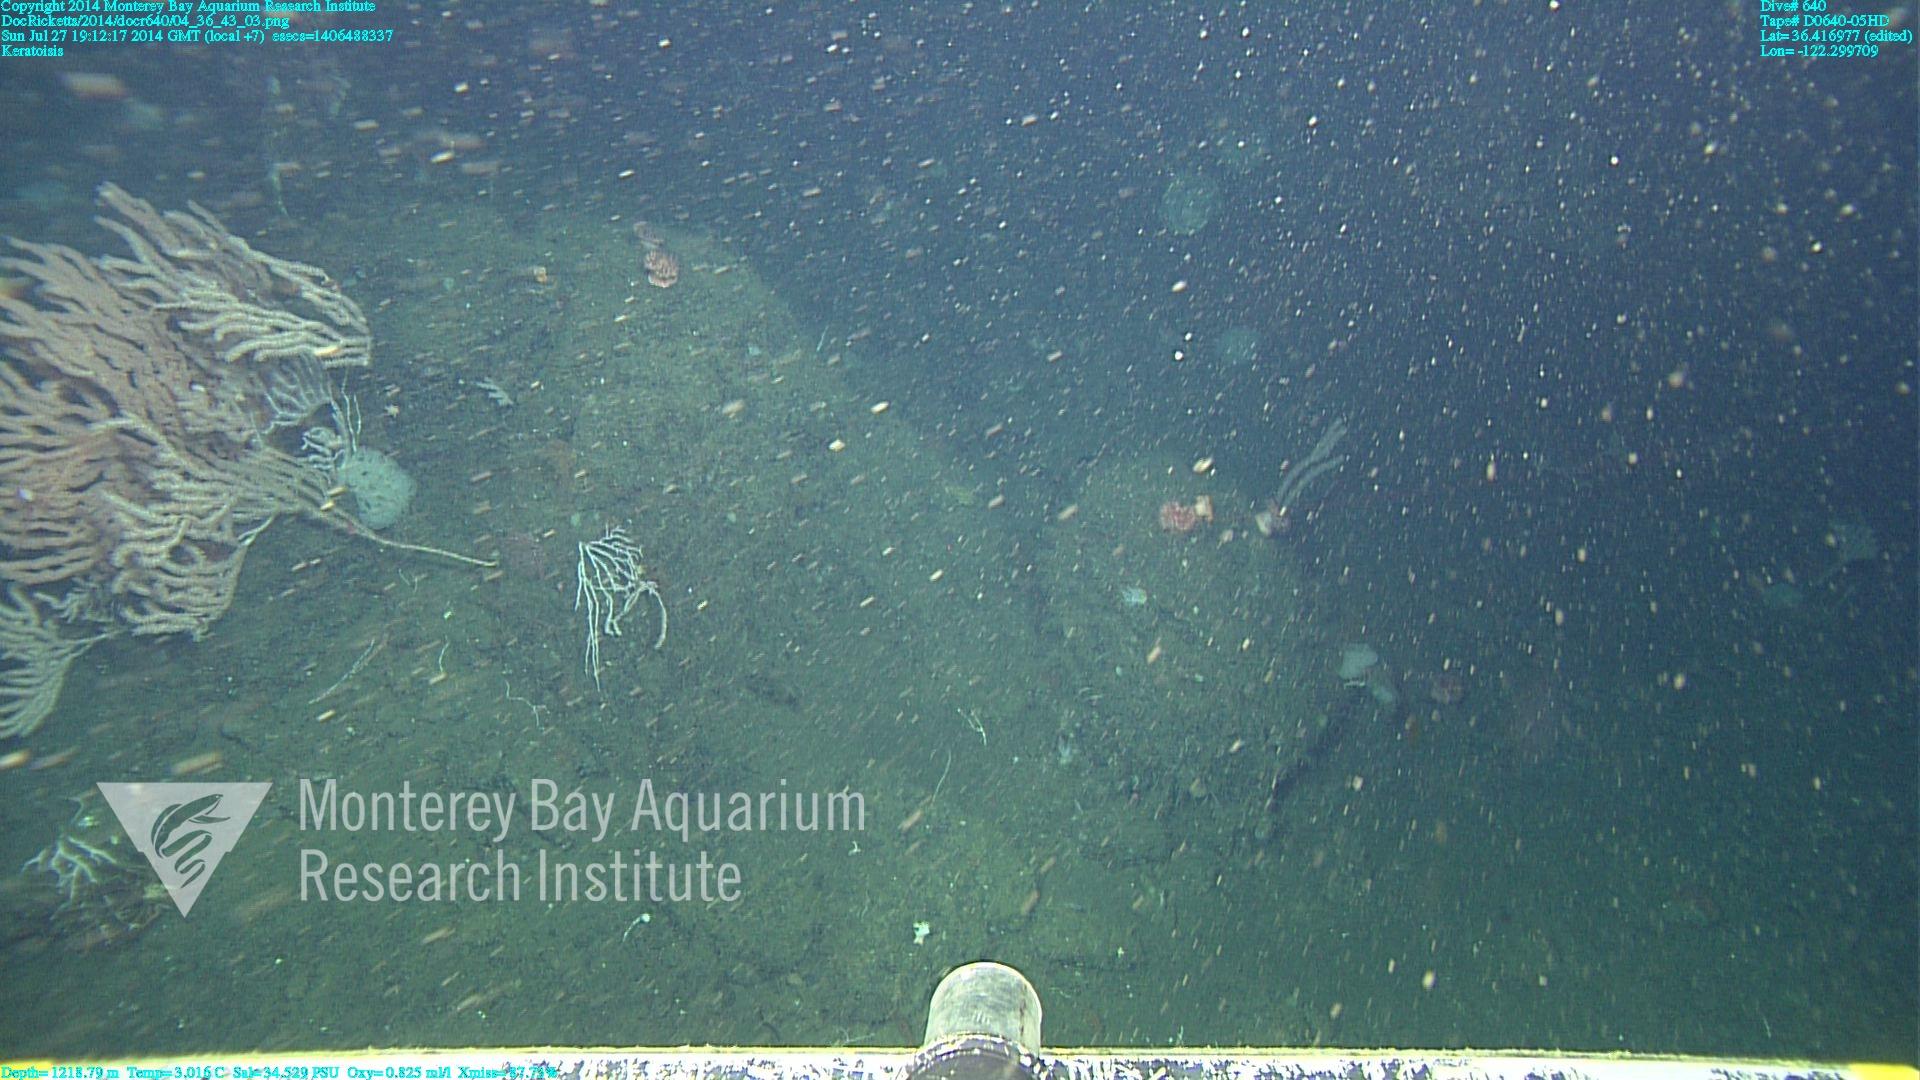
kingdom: Animalia
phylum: Cnidaria
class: Anthozoa
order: Scleralcyonacea
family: Keratoisididae
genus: Keratoisis
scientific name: Keratoisis
